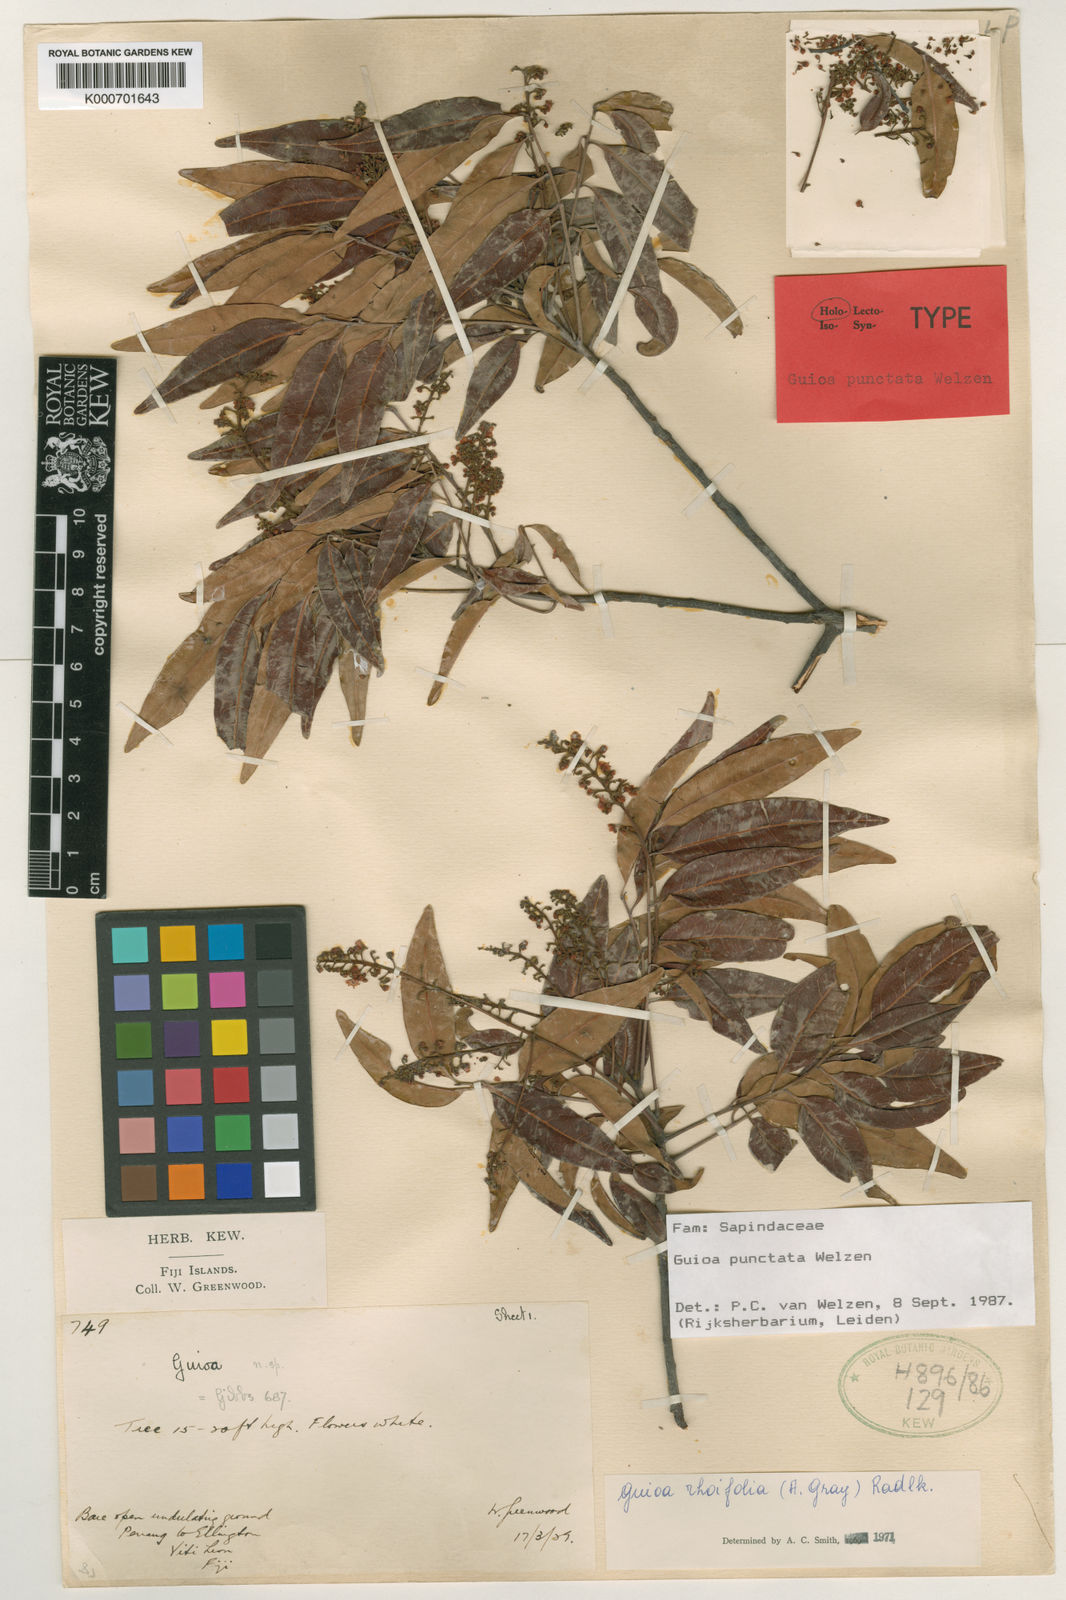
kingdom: Plantae
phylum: Tracheophyta
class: Magnoliopsida
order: Sapindales
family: Sapindaceae
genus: Guioa
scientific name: Guioa punctata
